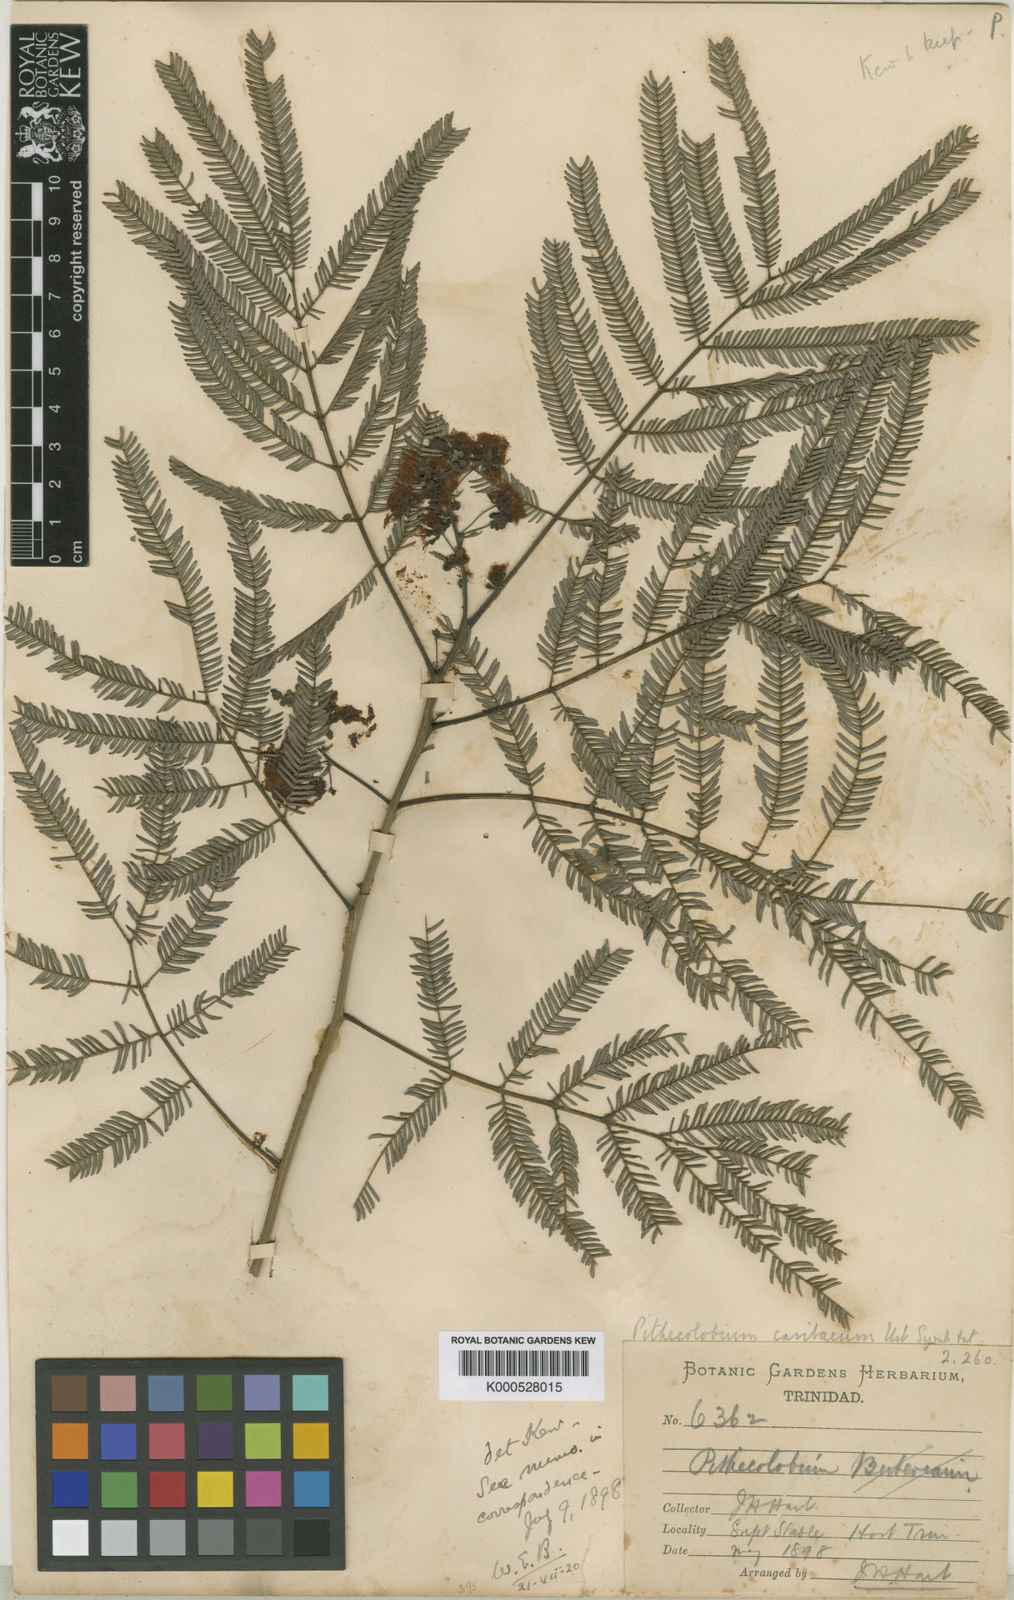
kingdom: Plantae
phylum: Tracheophyta
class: Magnoliopsida
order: Fabales
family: Fabaceae
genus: Albizia
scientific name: Albizia niopoides
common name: Silk tree
